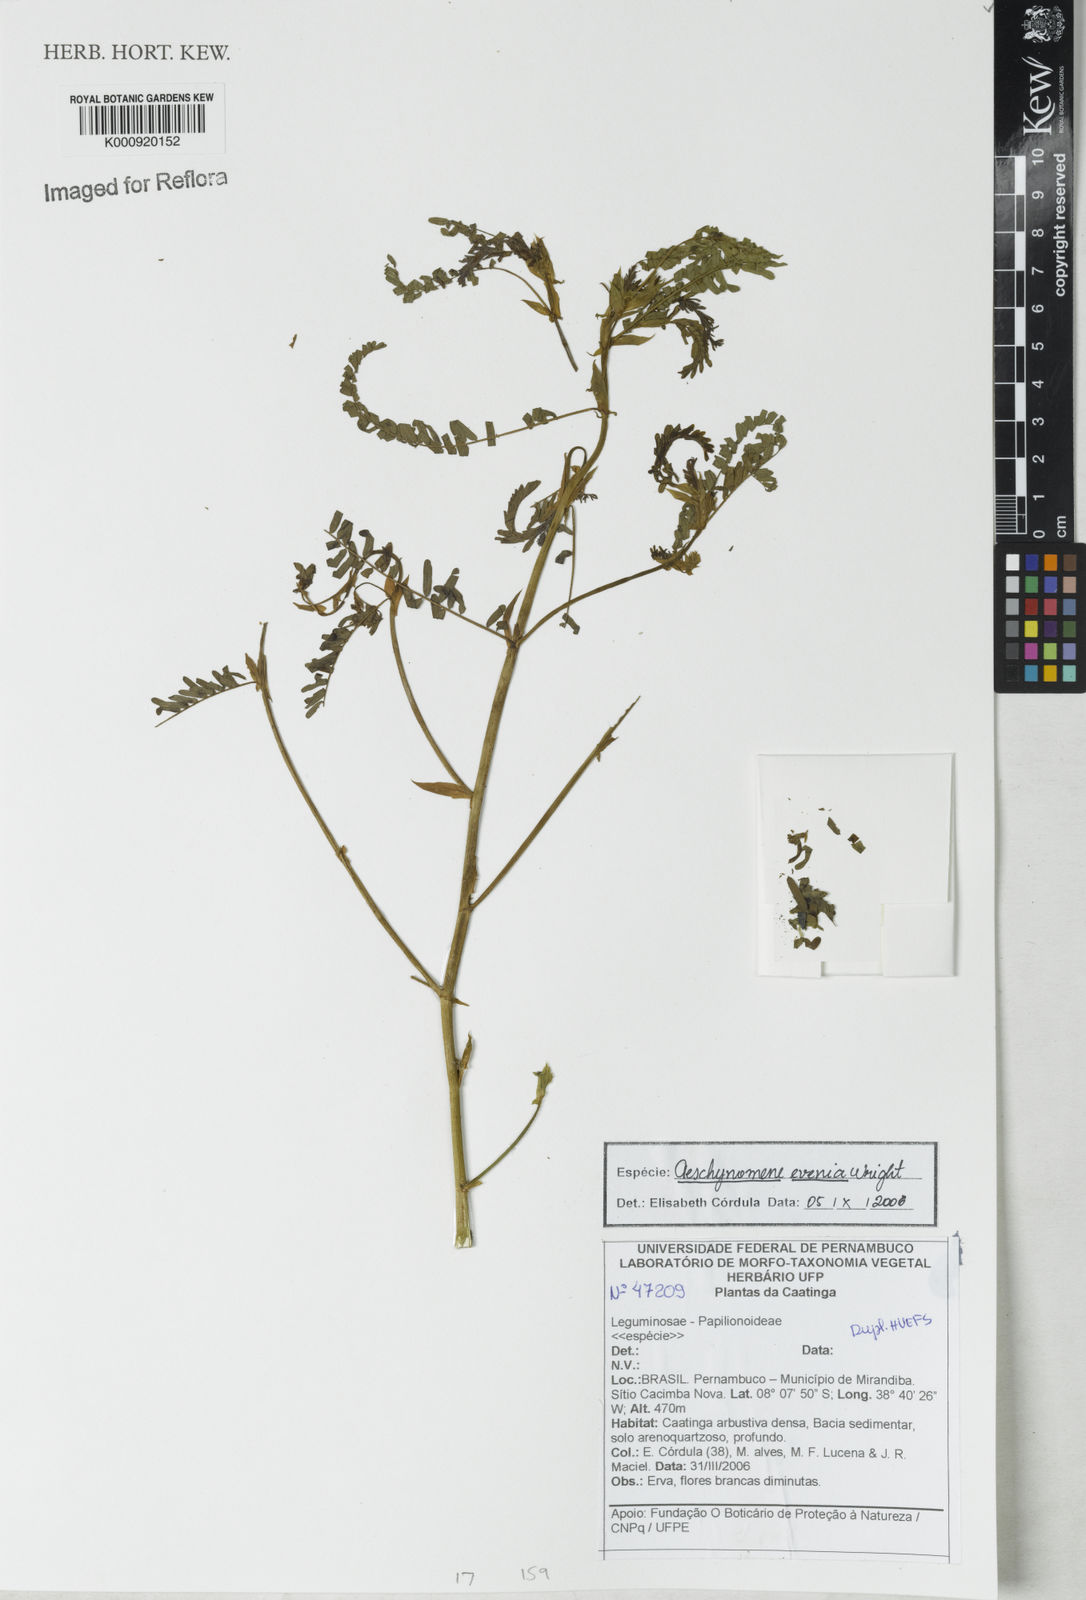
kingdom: Plantae
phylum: Tracheophyta
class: Magnoliopsida
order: Fabales
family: Fabaceae
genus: Aeschynomene
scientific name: Aeschynomene evenia
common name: Shrubby jointvetch
